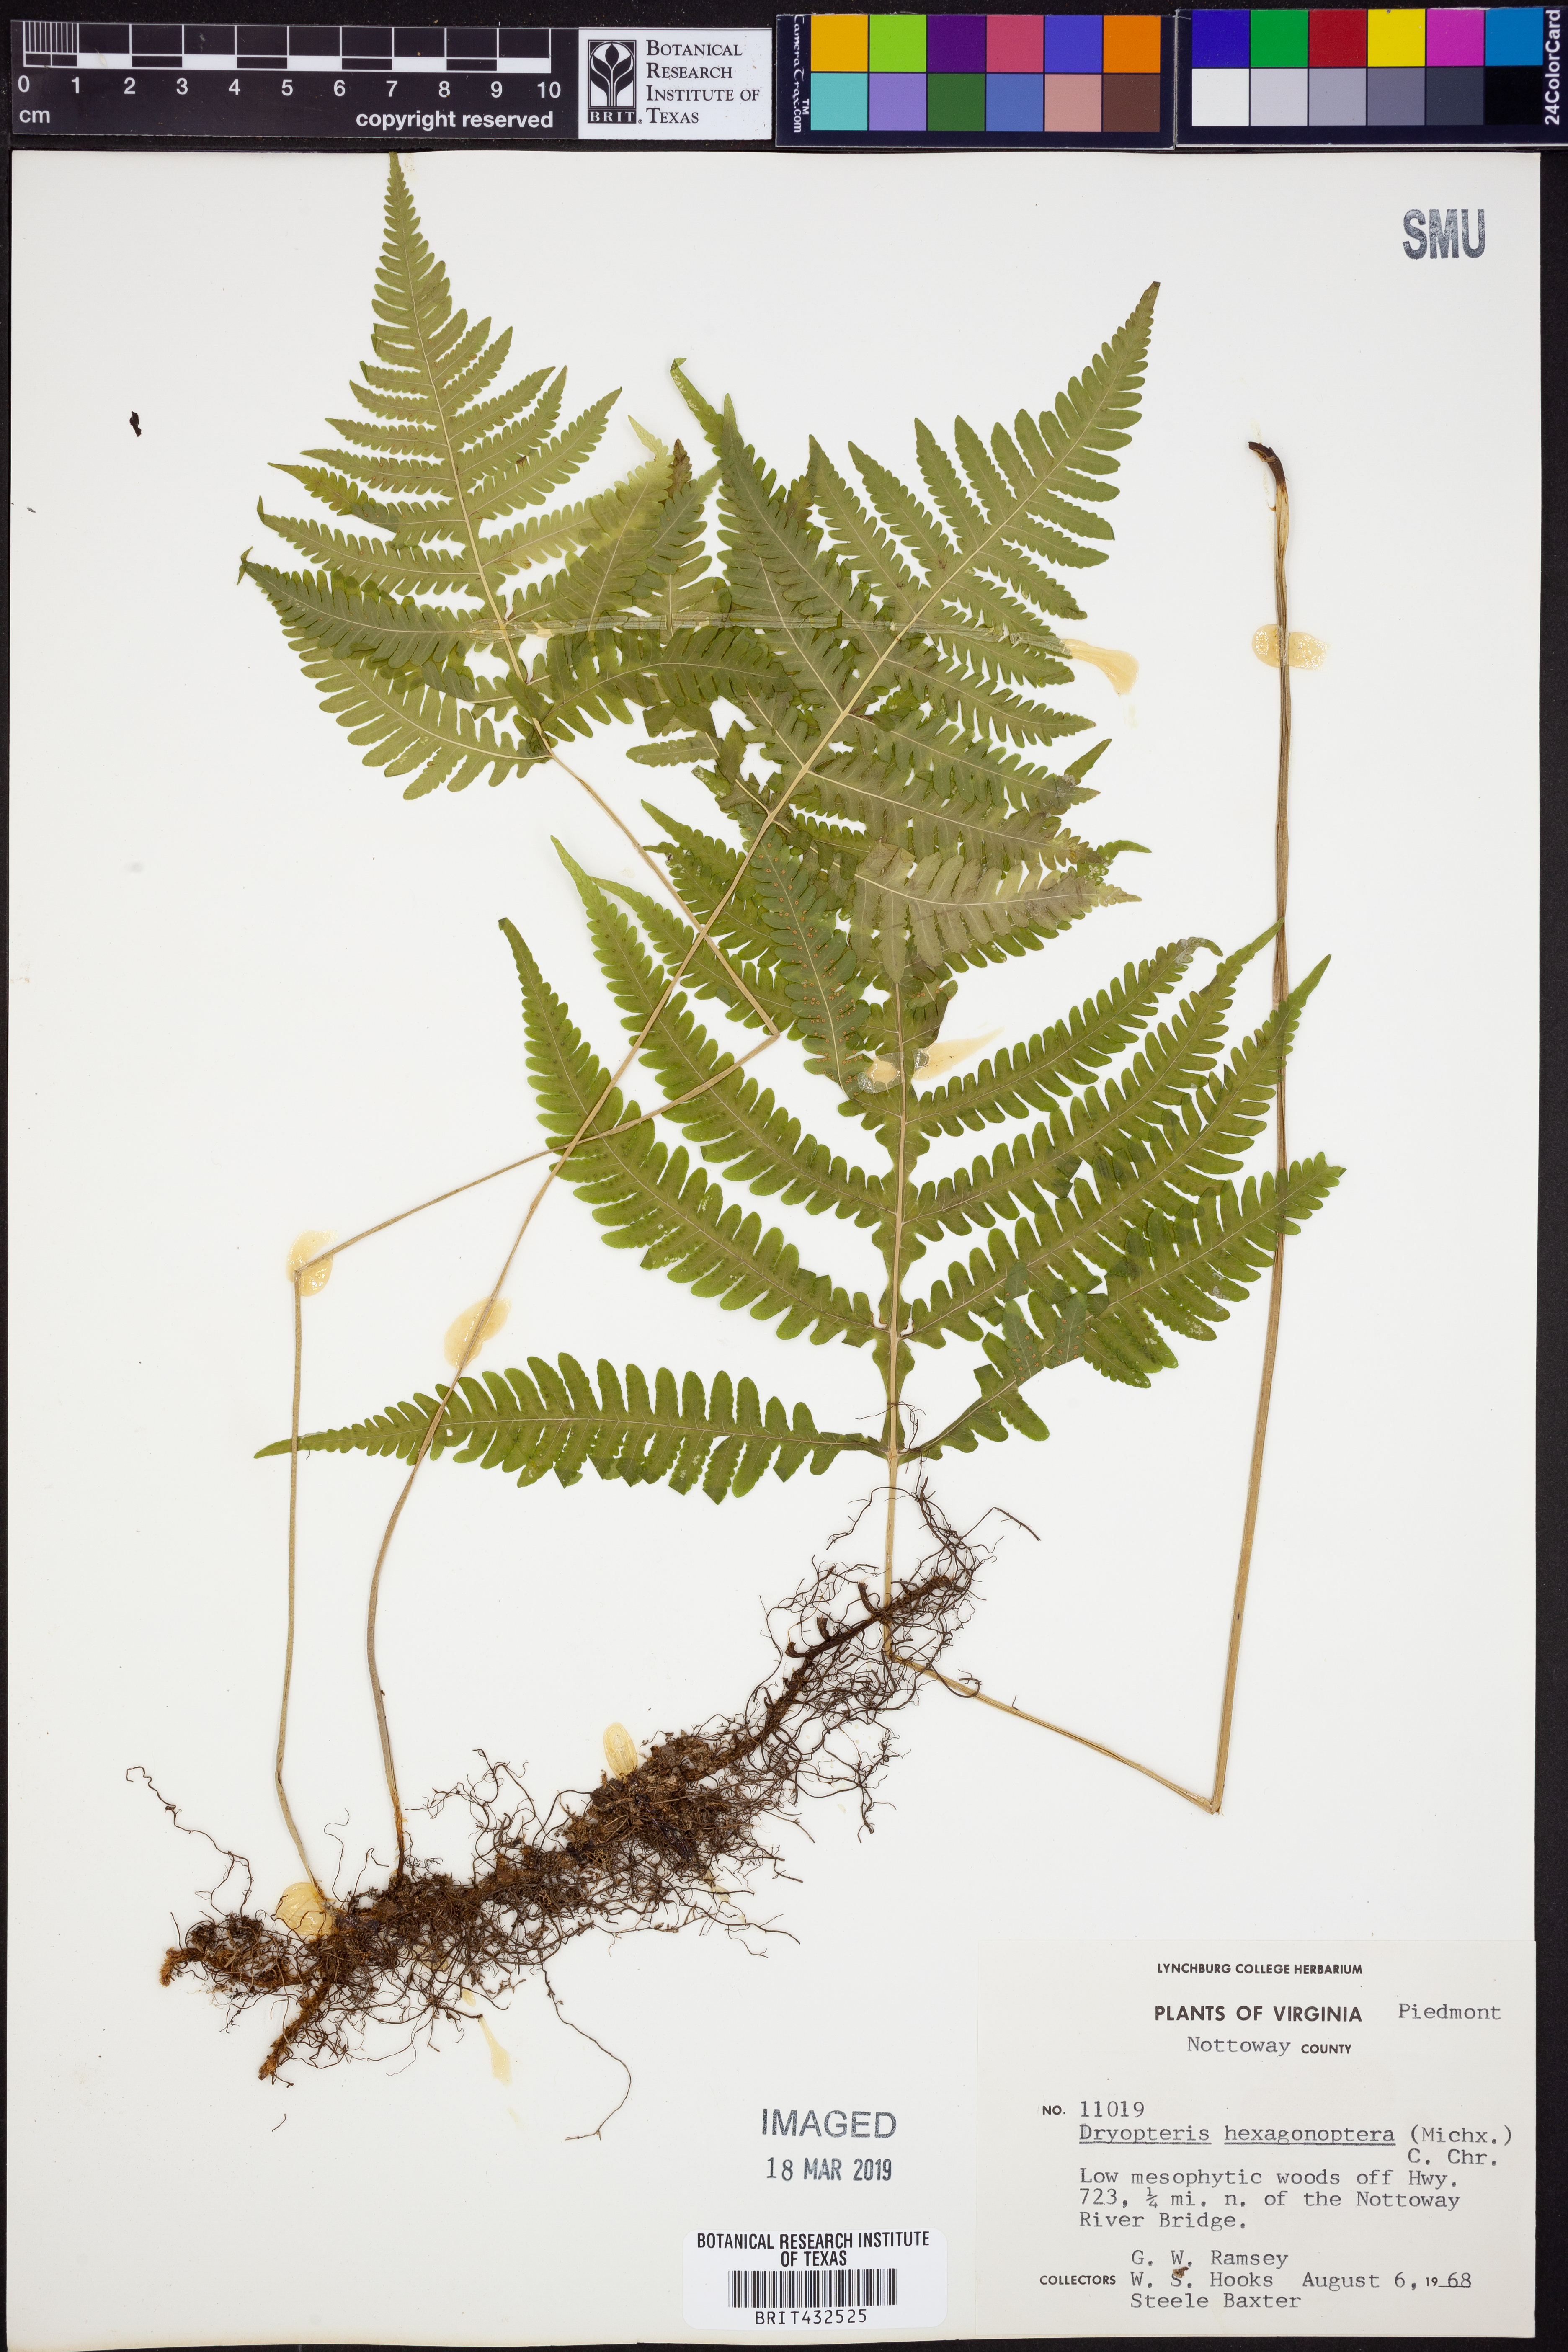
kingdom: Plantae
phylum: Tracheophyta
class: Polypodiopsida
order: Polypodiales
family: Dryopteridaceae
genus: Dryopteris
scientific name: Dryopteris hexagonaptera
